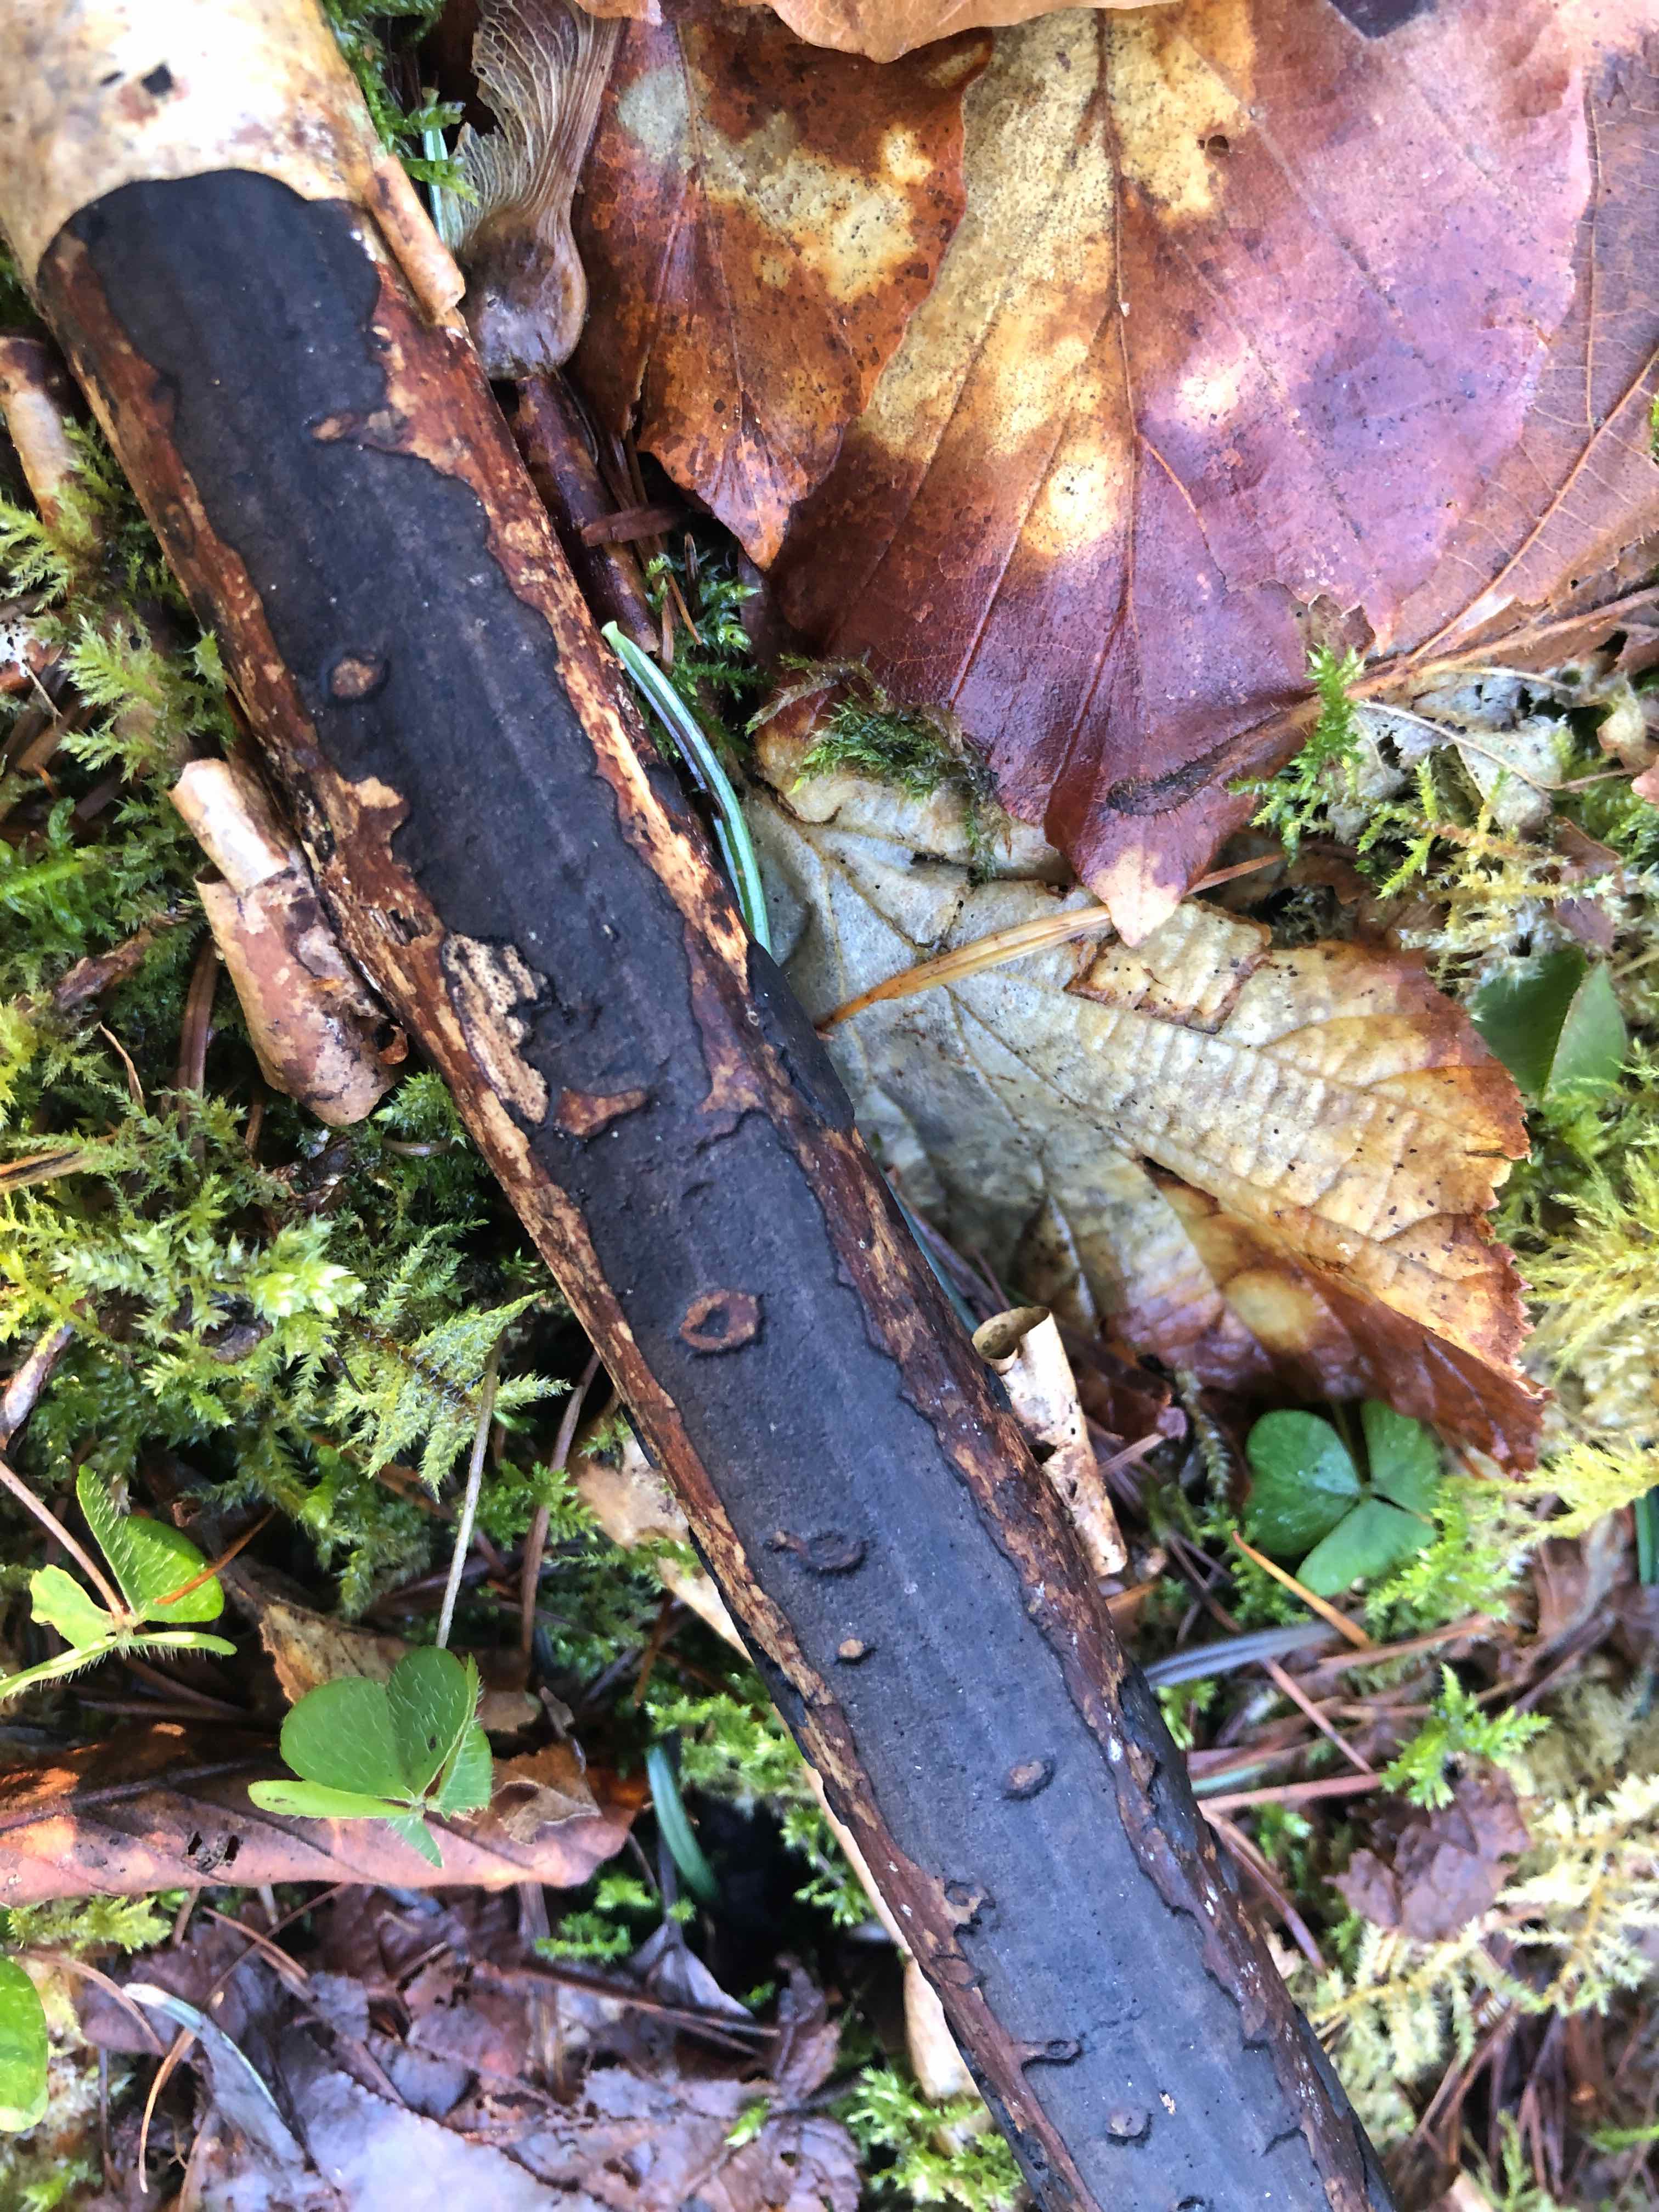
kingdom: Fungi
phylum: Ascomycota
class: Sordariomycetes
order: Xylariales
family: Diatrypaceae
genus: Diatrype
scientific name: Diatrype decorticata
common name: barksprænger-kulskorpe
